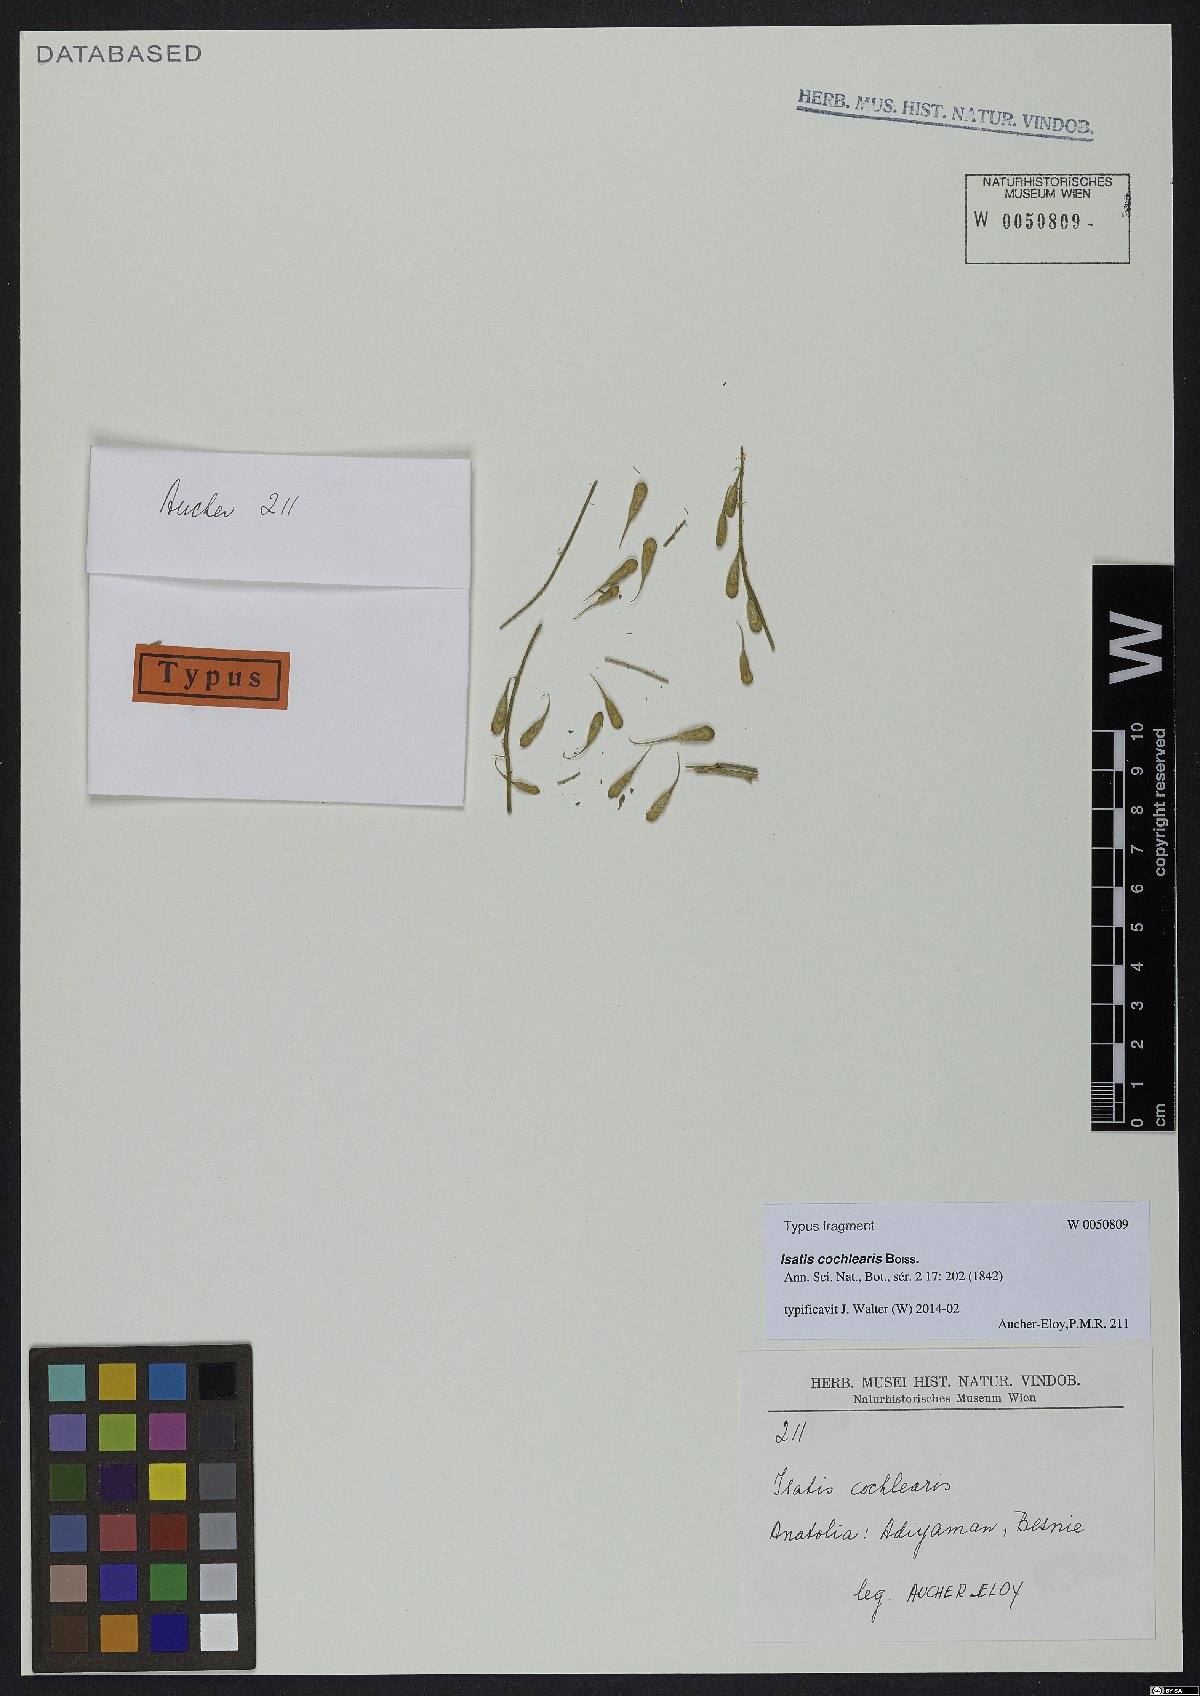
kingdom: Plantae
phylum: Tracheophyta
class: Magnoliopsida
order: Brassicales
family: Brassicaceae
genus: Isatis
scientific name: Isatis cochlearis
